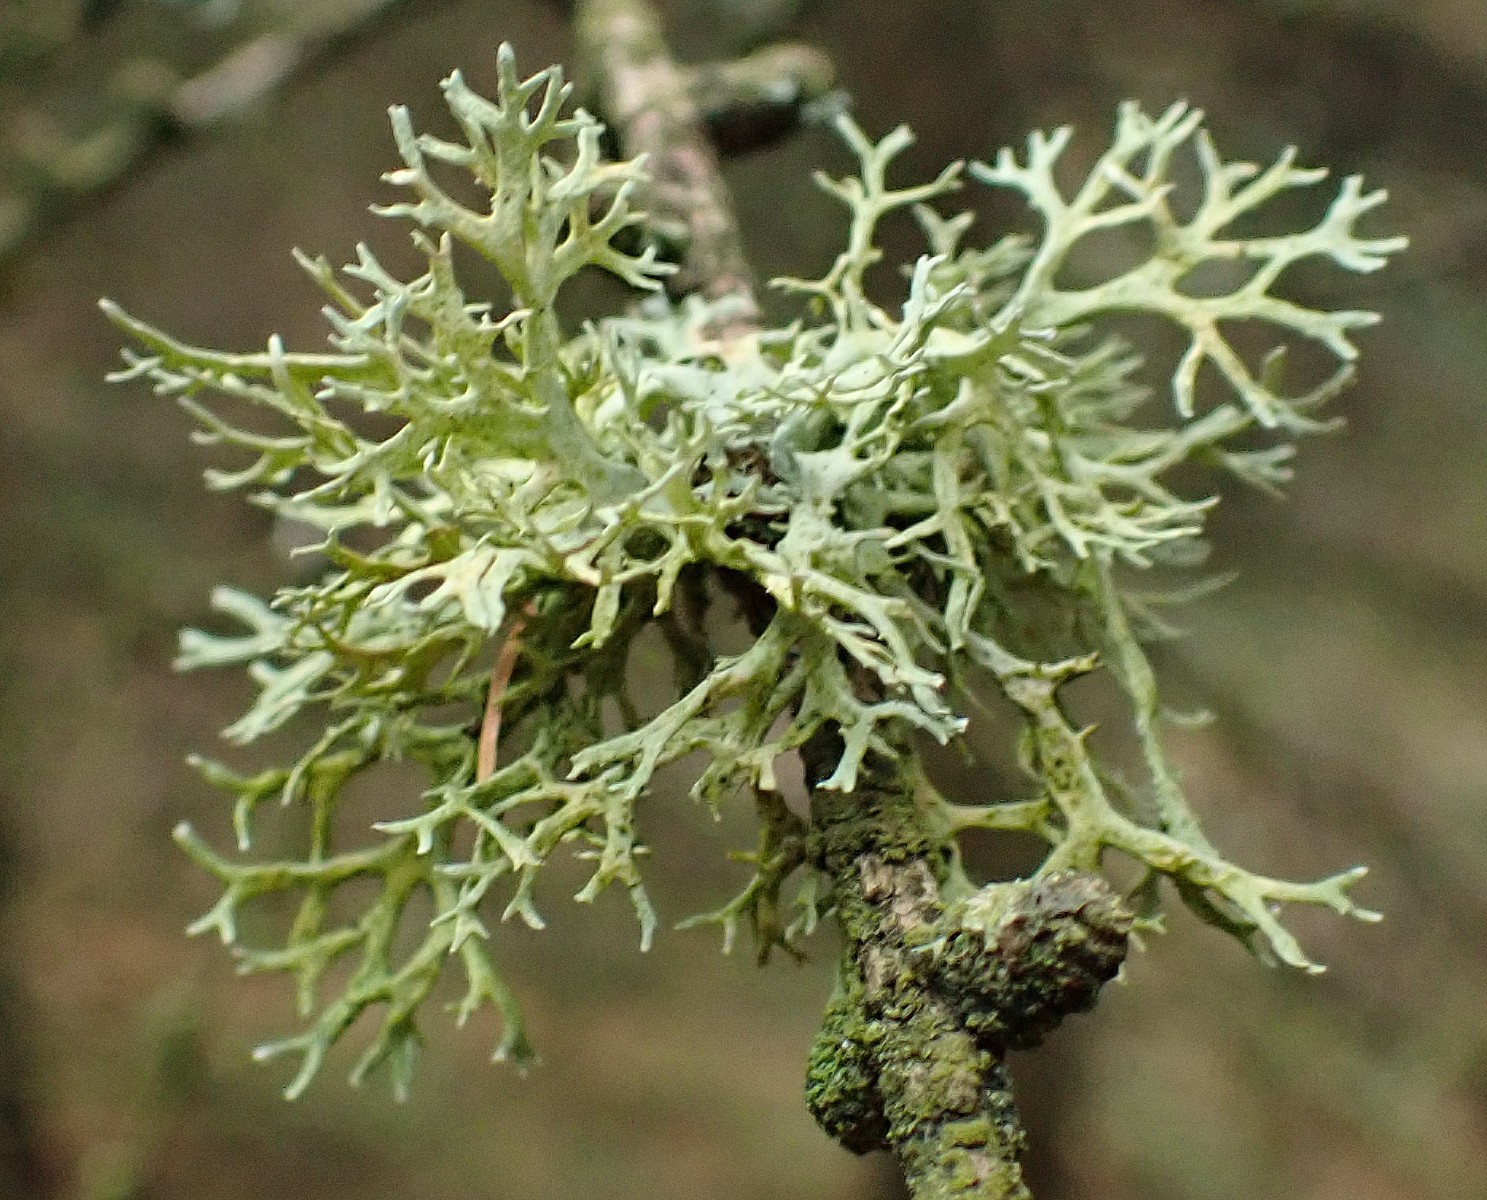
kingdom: Fungi
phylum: Ascomycota
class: Lecanoromycetes
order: Lecanorales
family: Parmeliaceae
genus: Evernia
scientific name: Evernia prunastri
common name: almindelig slåenlav
